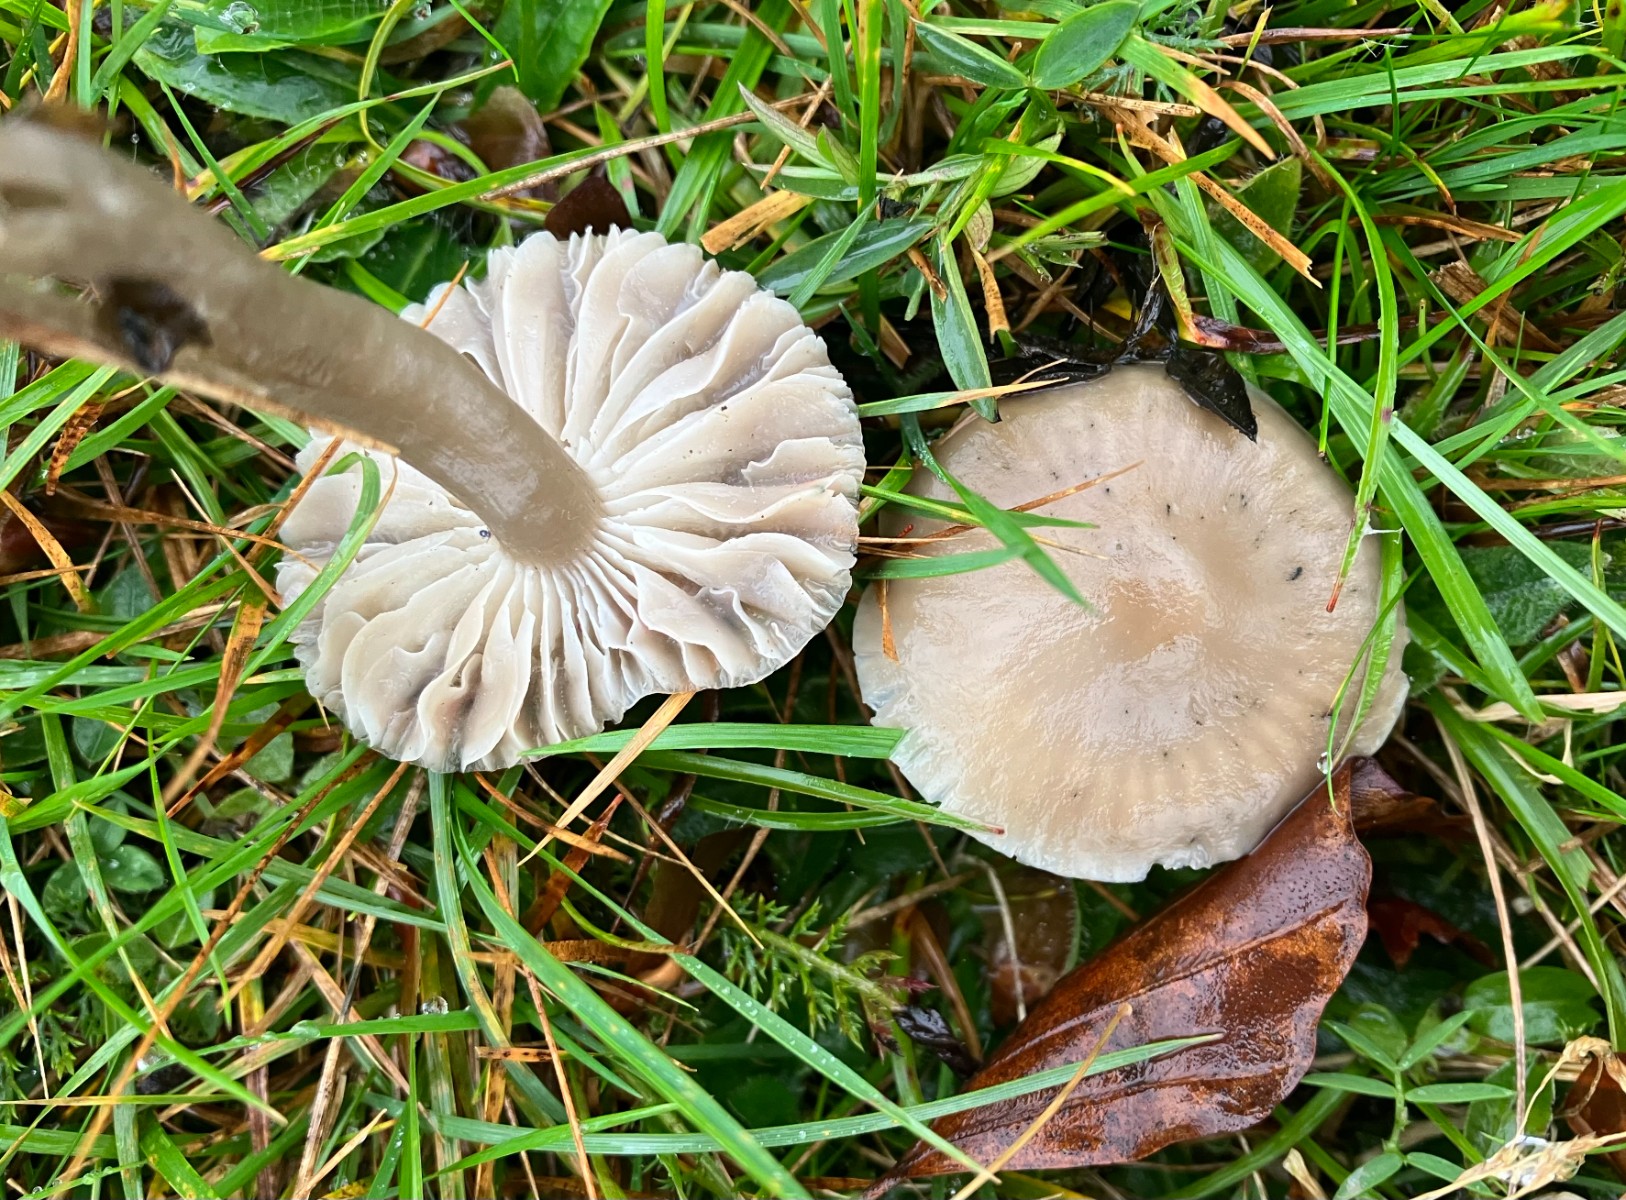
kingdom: Fungi
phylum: Basidiomycota
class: Agaricomycetes
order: Agaricales
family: Hygrophoraceae
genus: Gliophorus
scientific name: Gliophorus irrigatus
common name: slimet vokshat
